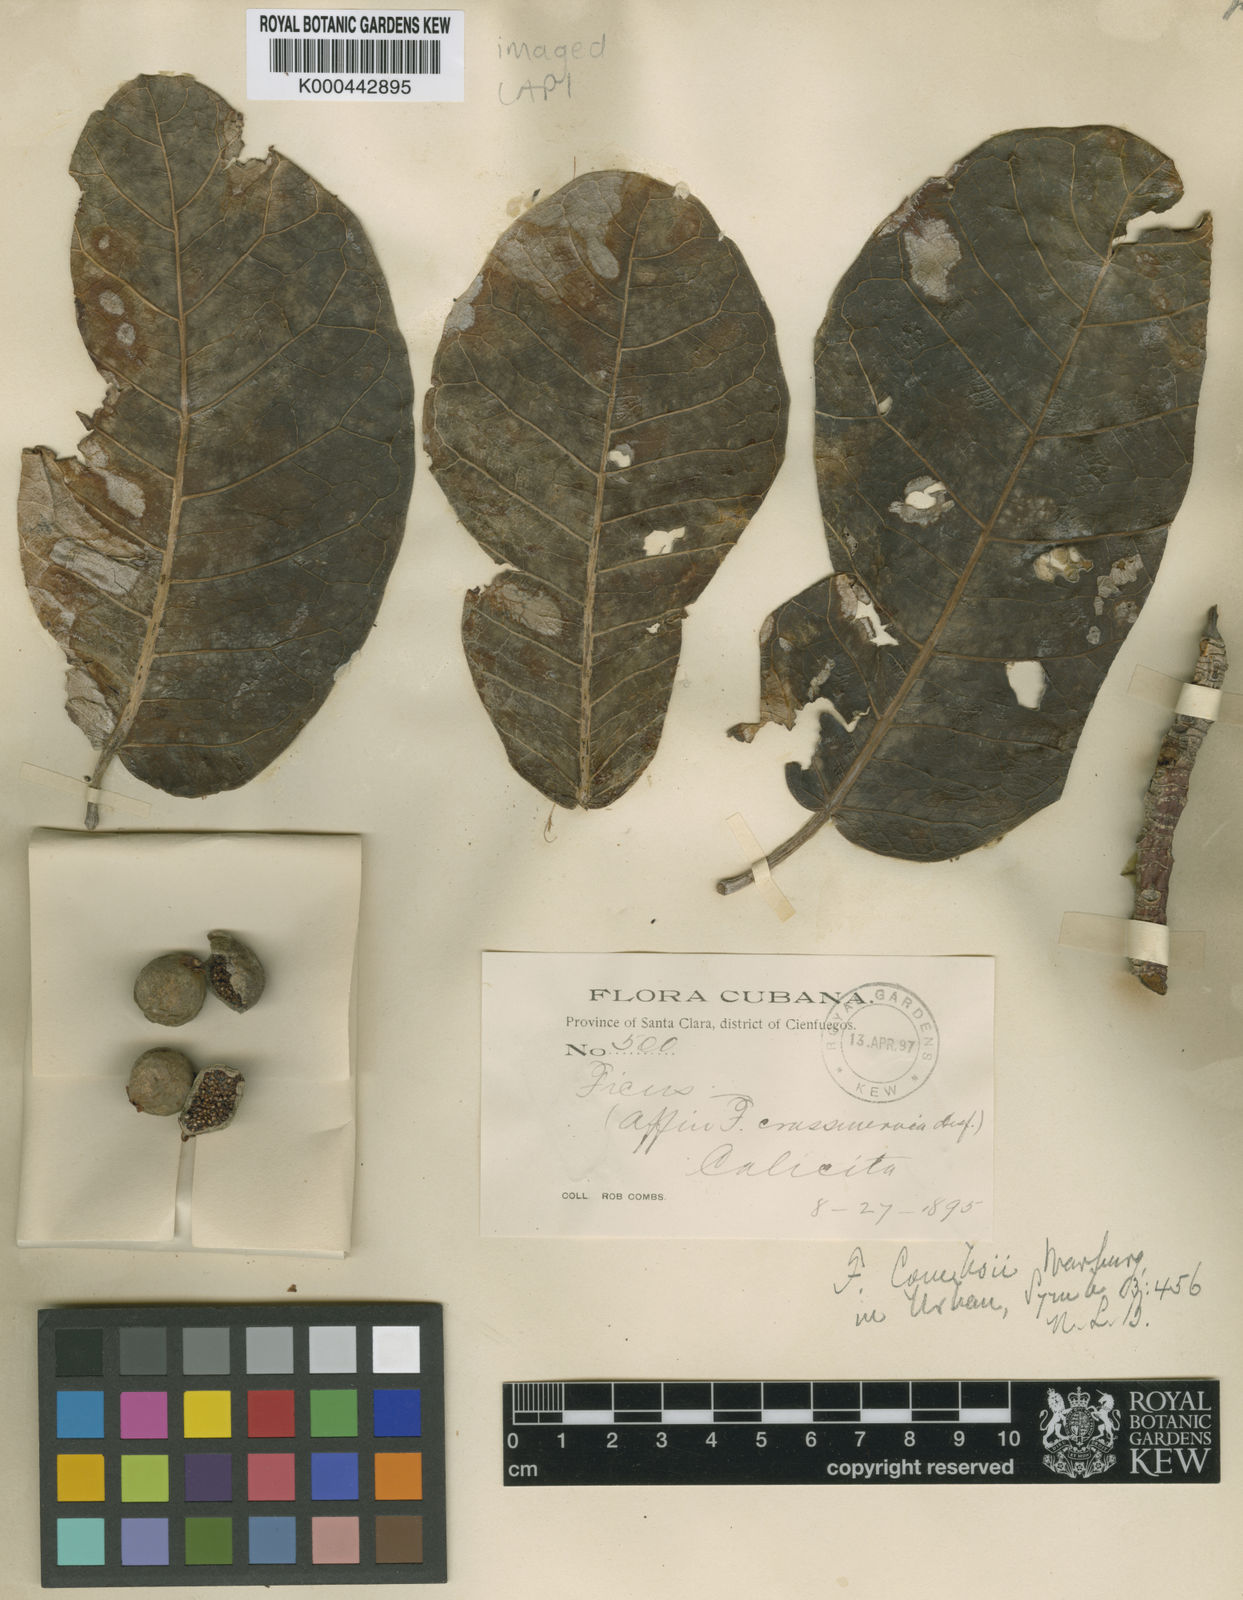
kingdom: Plantae
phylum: Tracheophyta
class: Magnoliopsida
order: Rosales
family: Moraceae
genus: Ficus
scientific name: Ficus trigonata
